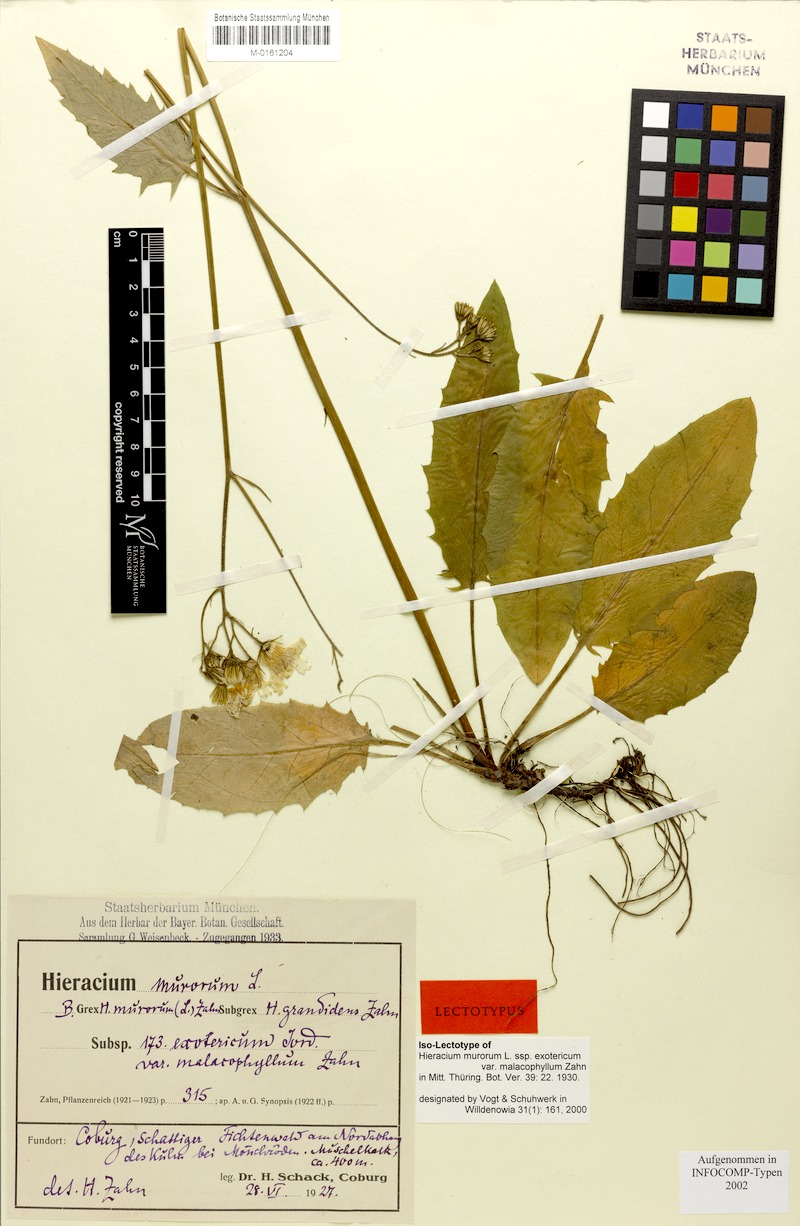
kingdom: Plantae
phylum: Tracheophyta
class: Magnoliopsida
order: Asterales
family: Asteraceae
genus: Hieracium
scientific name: Hieracium murorum
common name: Wall hawkweed
